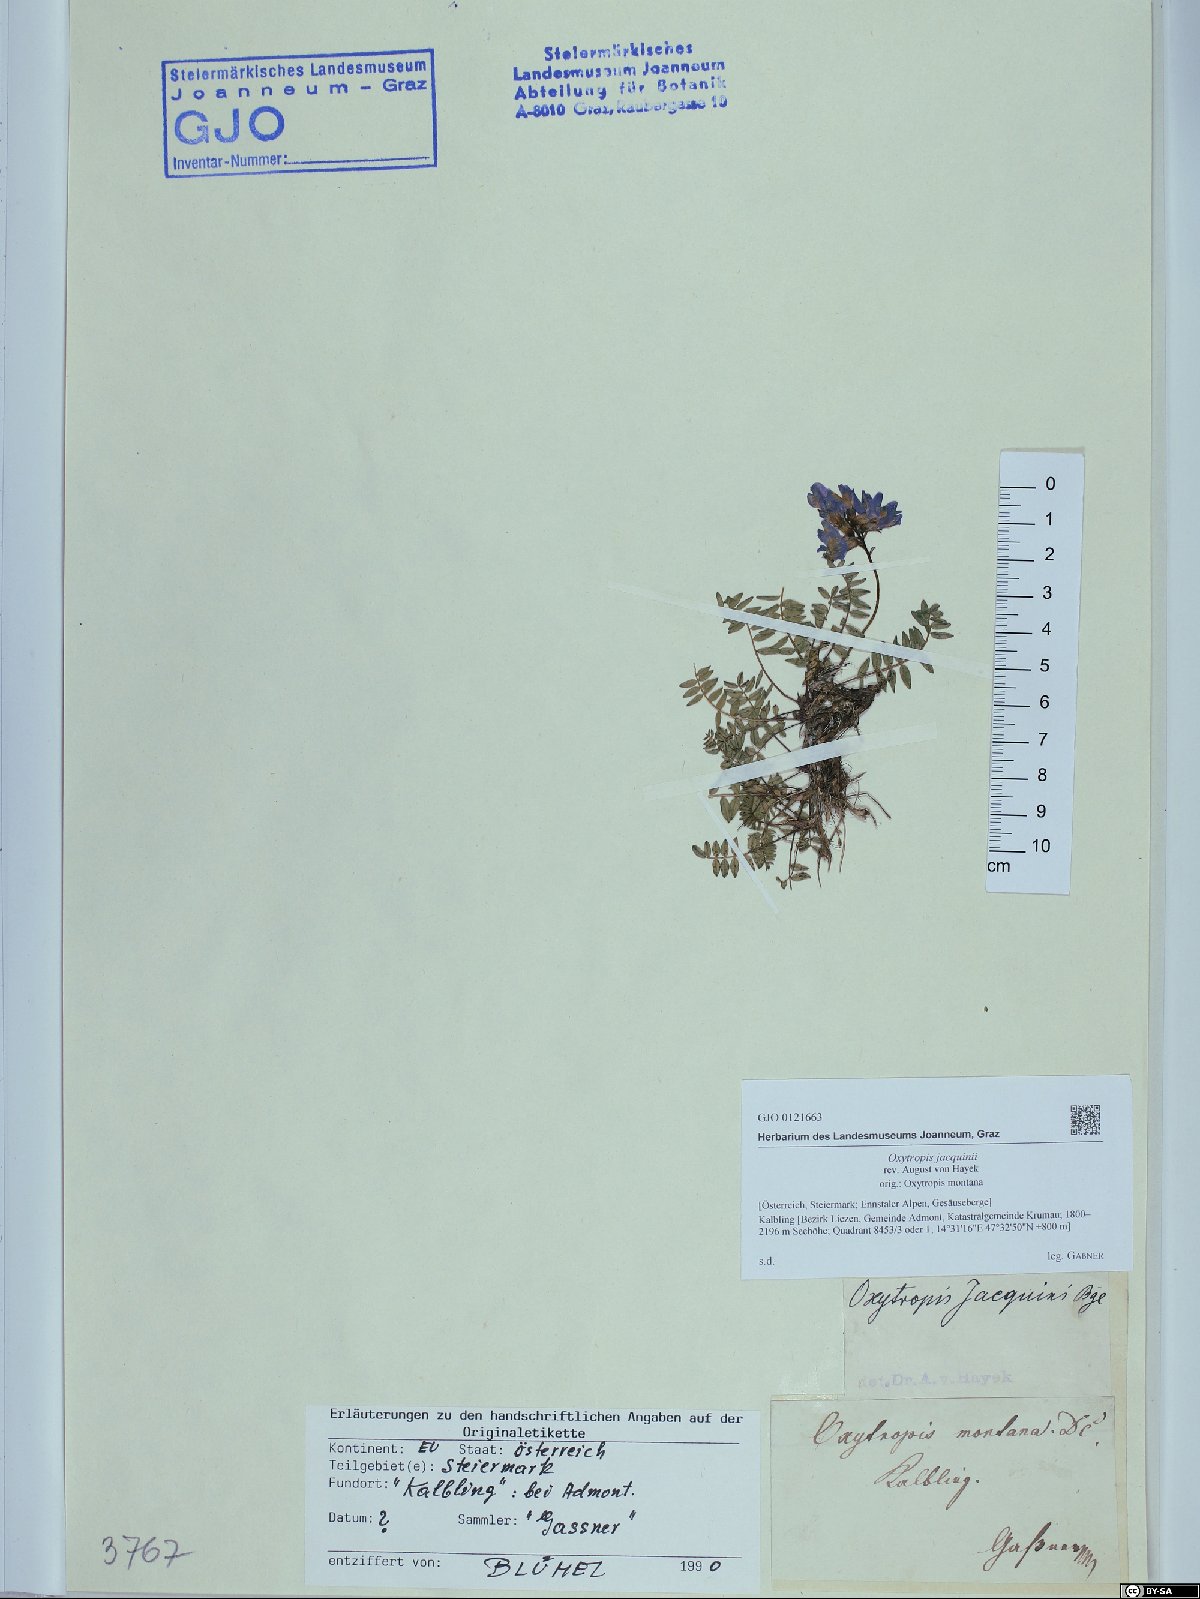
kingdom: Plantae
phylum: Tracheophyta
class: Magnoliopsida
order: Fabales
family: Fabaceae
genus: Oxytropis
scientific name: Oxytropis montana
